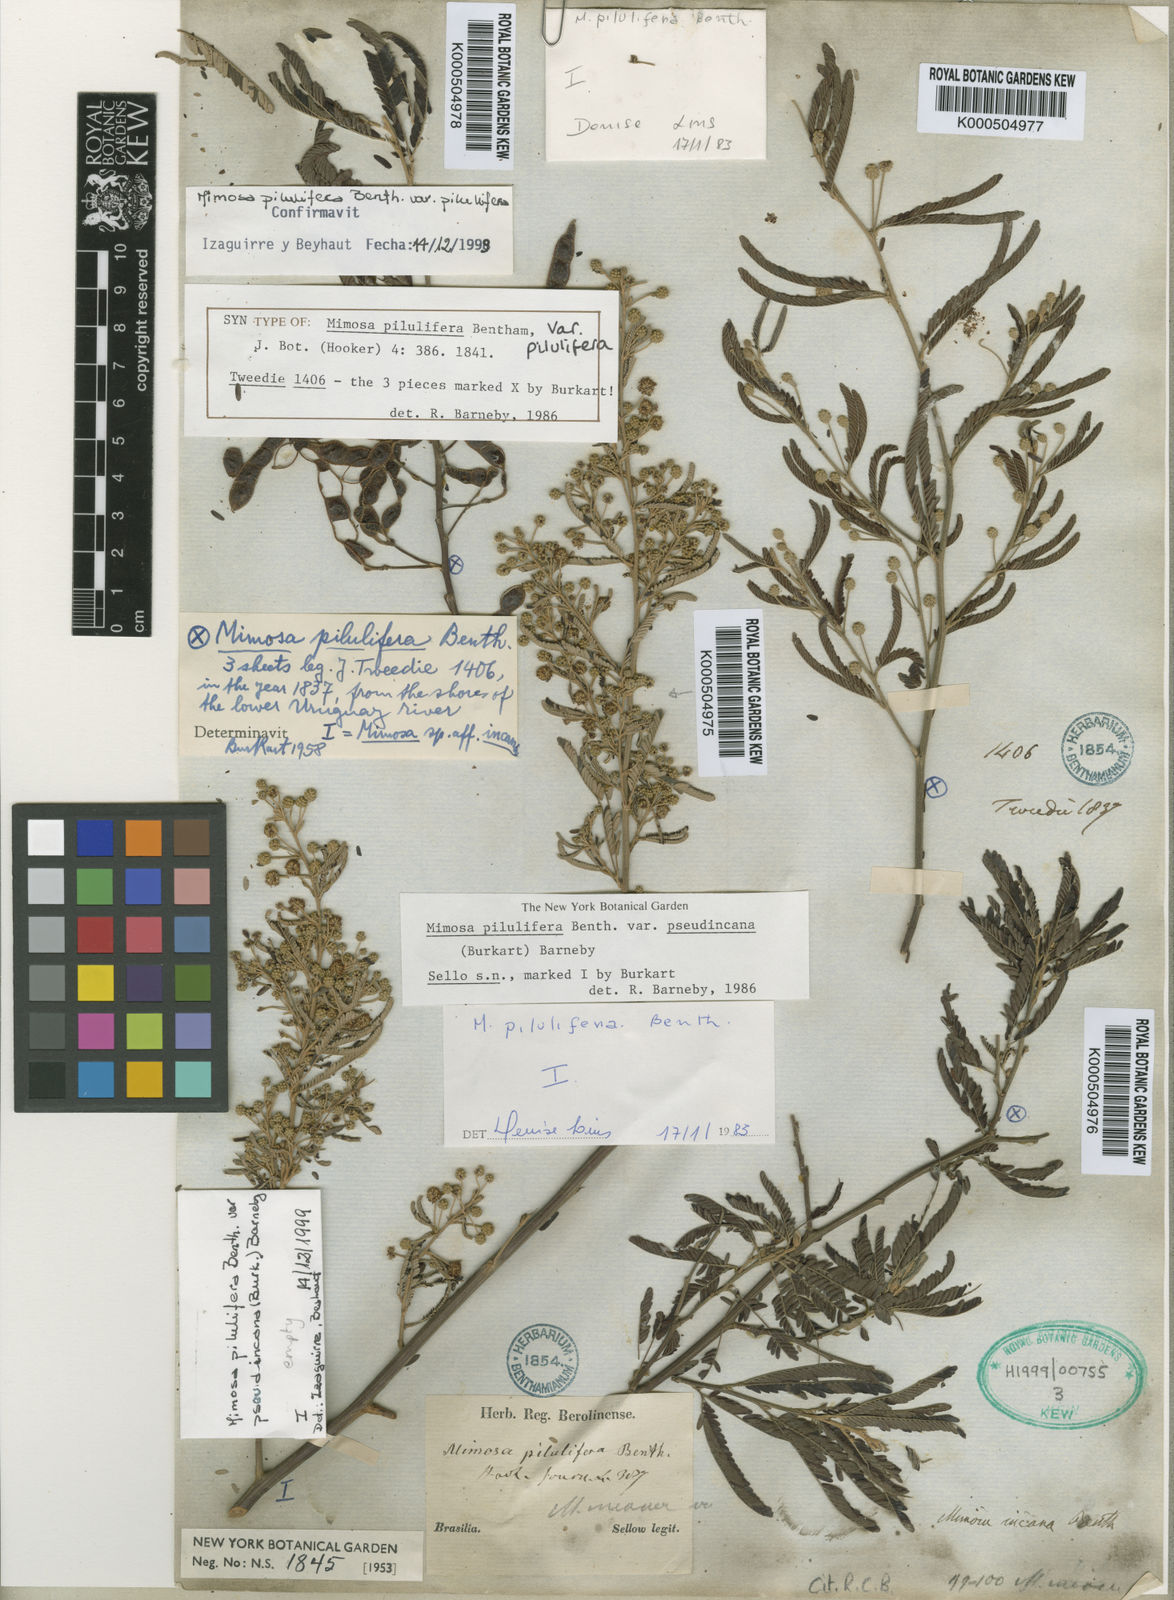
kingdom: Plantae
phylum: Tracheophyta
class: Magnoliopsida
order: Fabales
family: Fabaceae
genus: Mimosa
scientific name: Mimosa pilulifera
